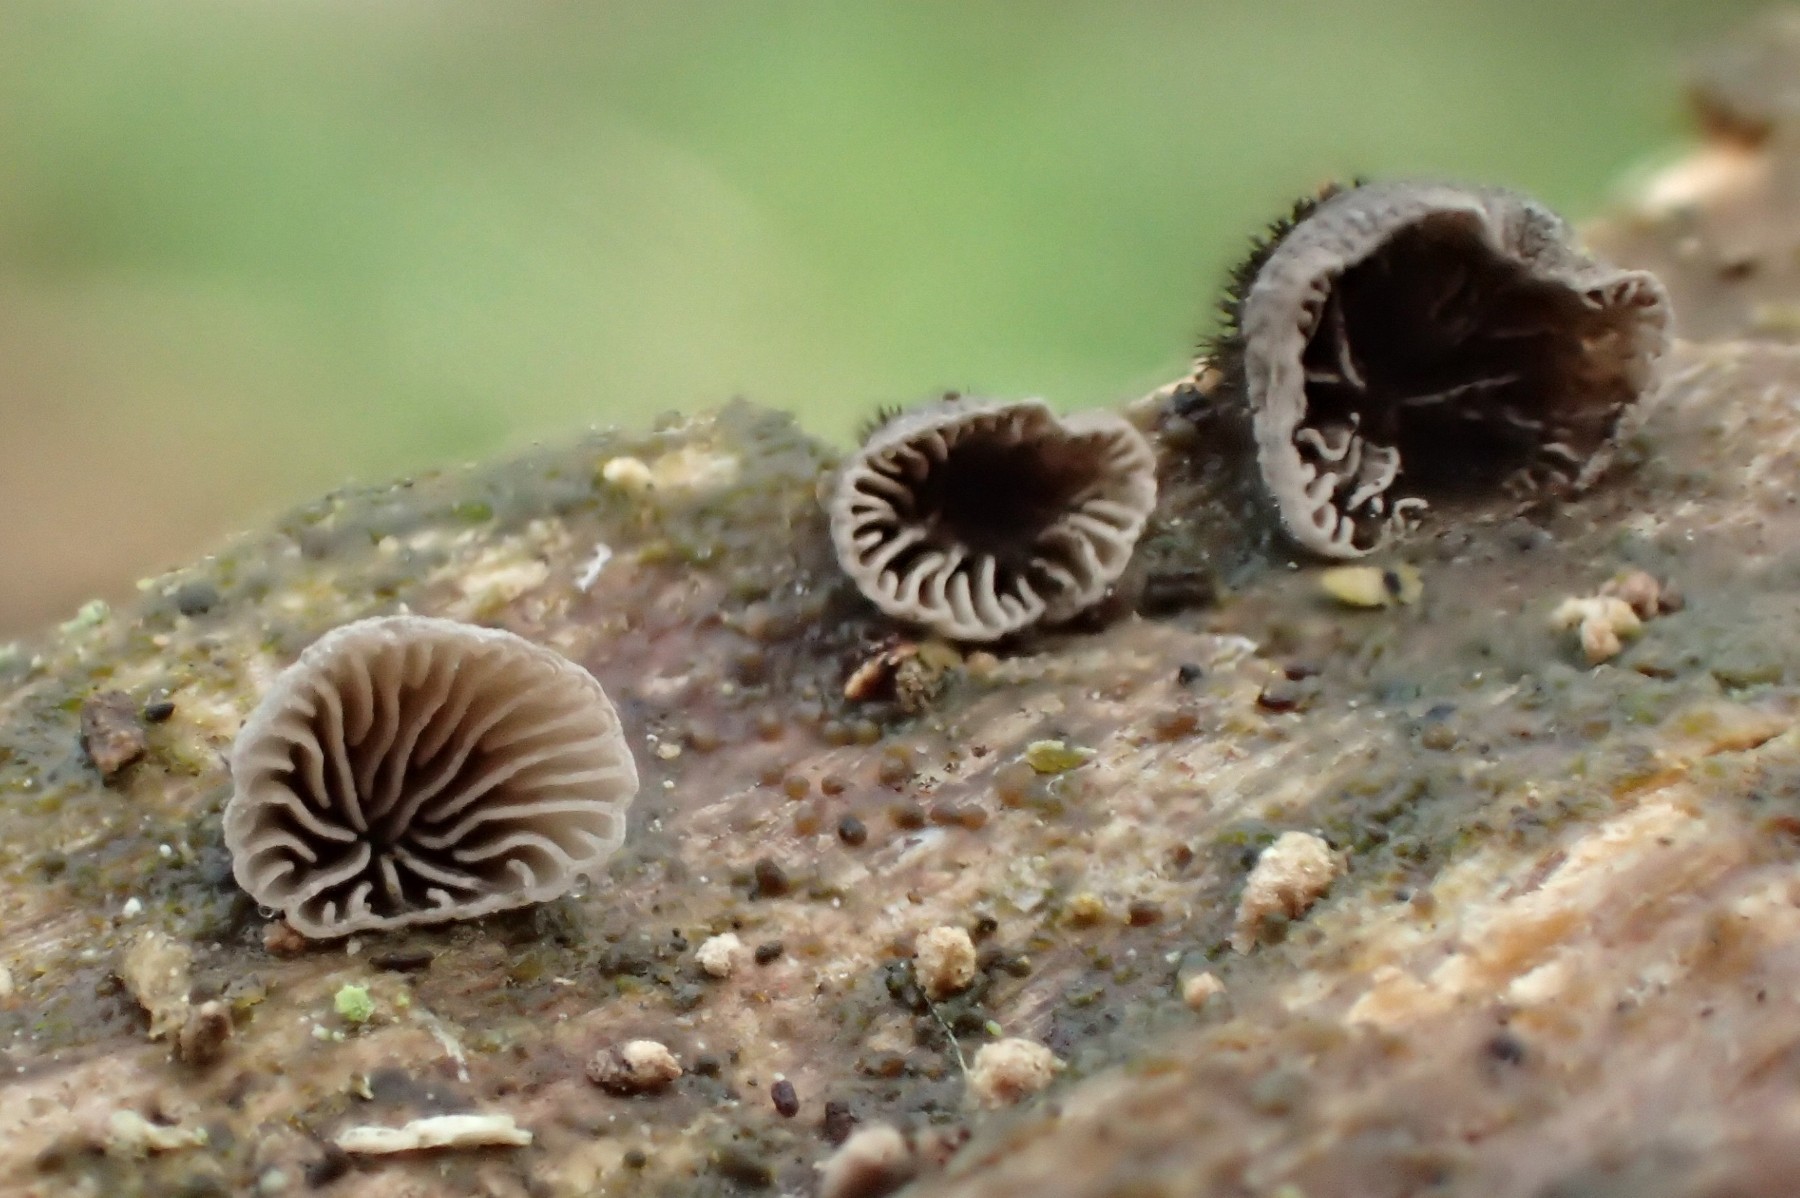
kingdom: Fungi
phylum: Basidiomycota
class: Agaricomycetes
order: Agaricales
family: Pleurotaceae
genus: Resupinatus
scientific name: Resupinatus trichotis
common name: mørkfiltet barkhat
